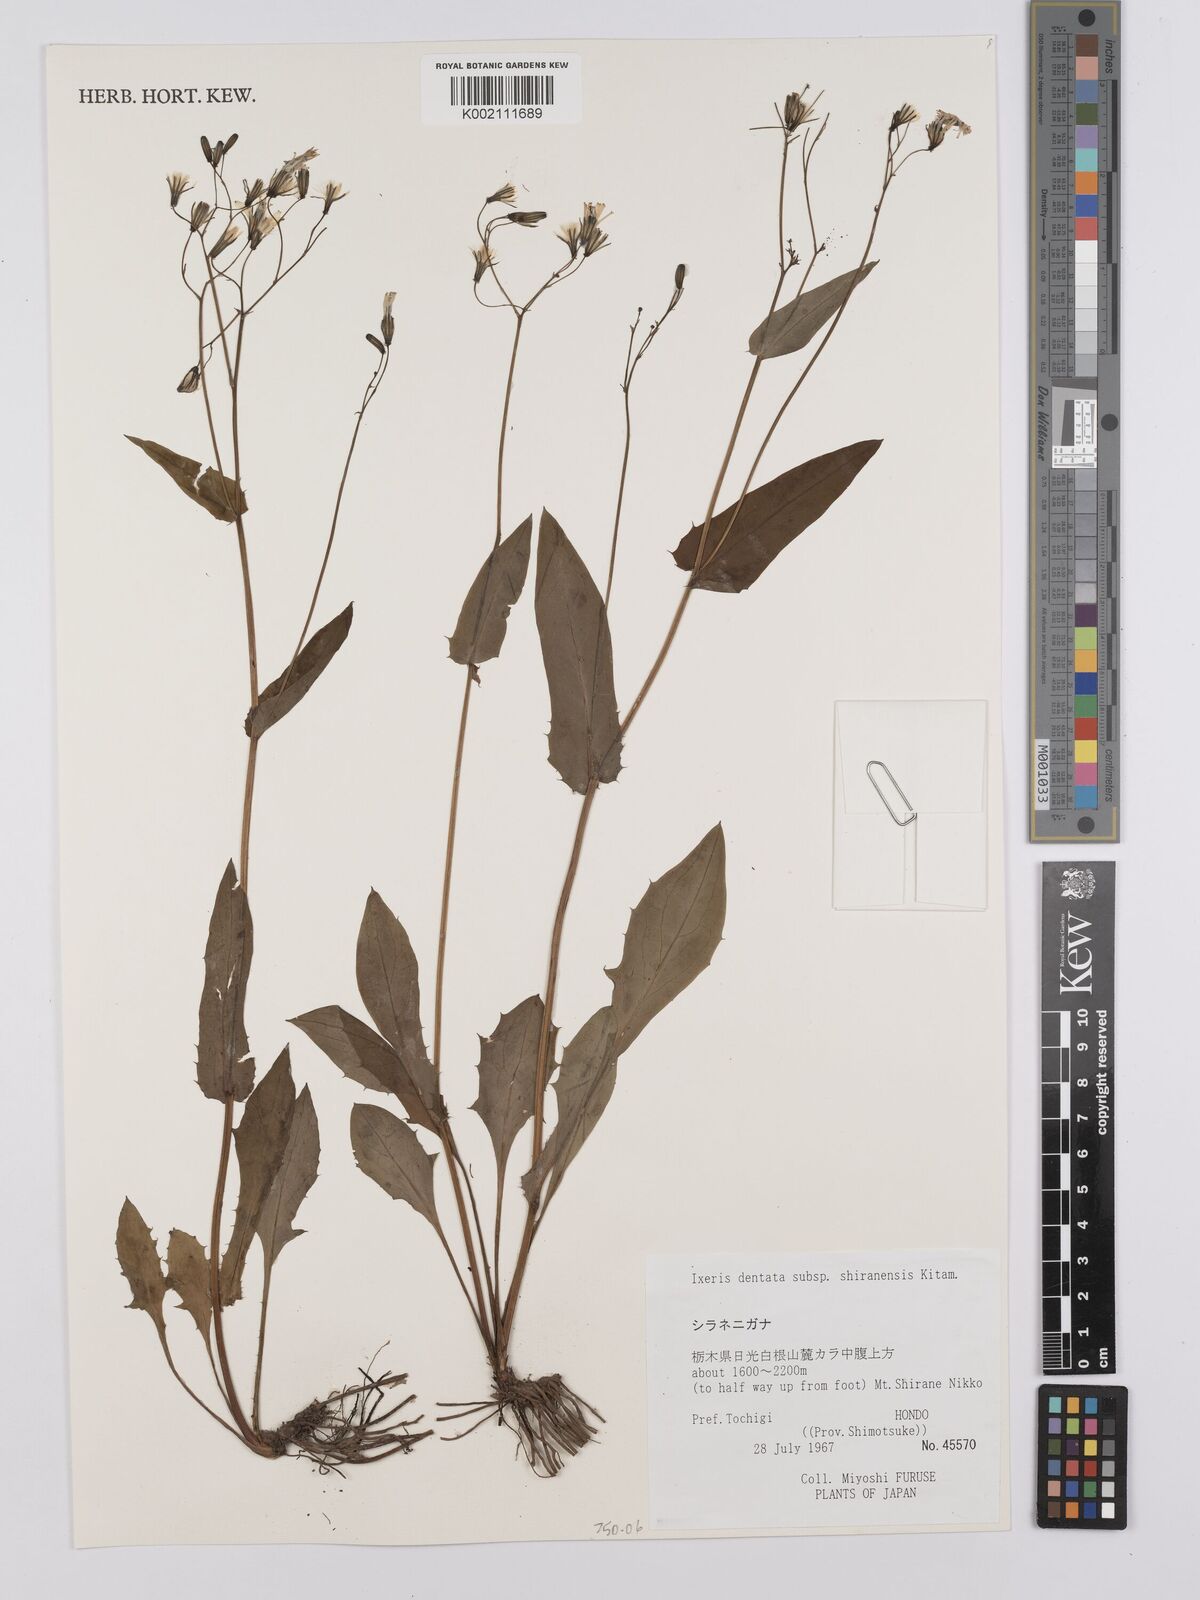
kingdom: Plantae
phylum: Tracheophyta
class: Magnoliopsida
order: Asterales
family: Asteraceae
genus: Ixeridium
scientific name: Ixeridium dentatum
